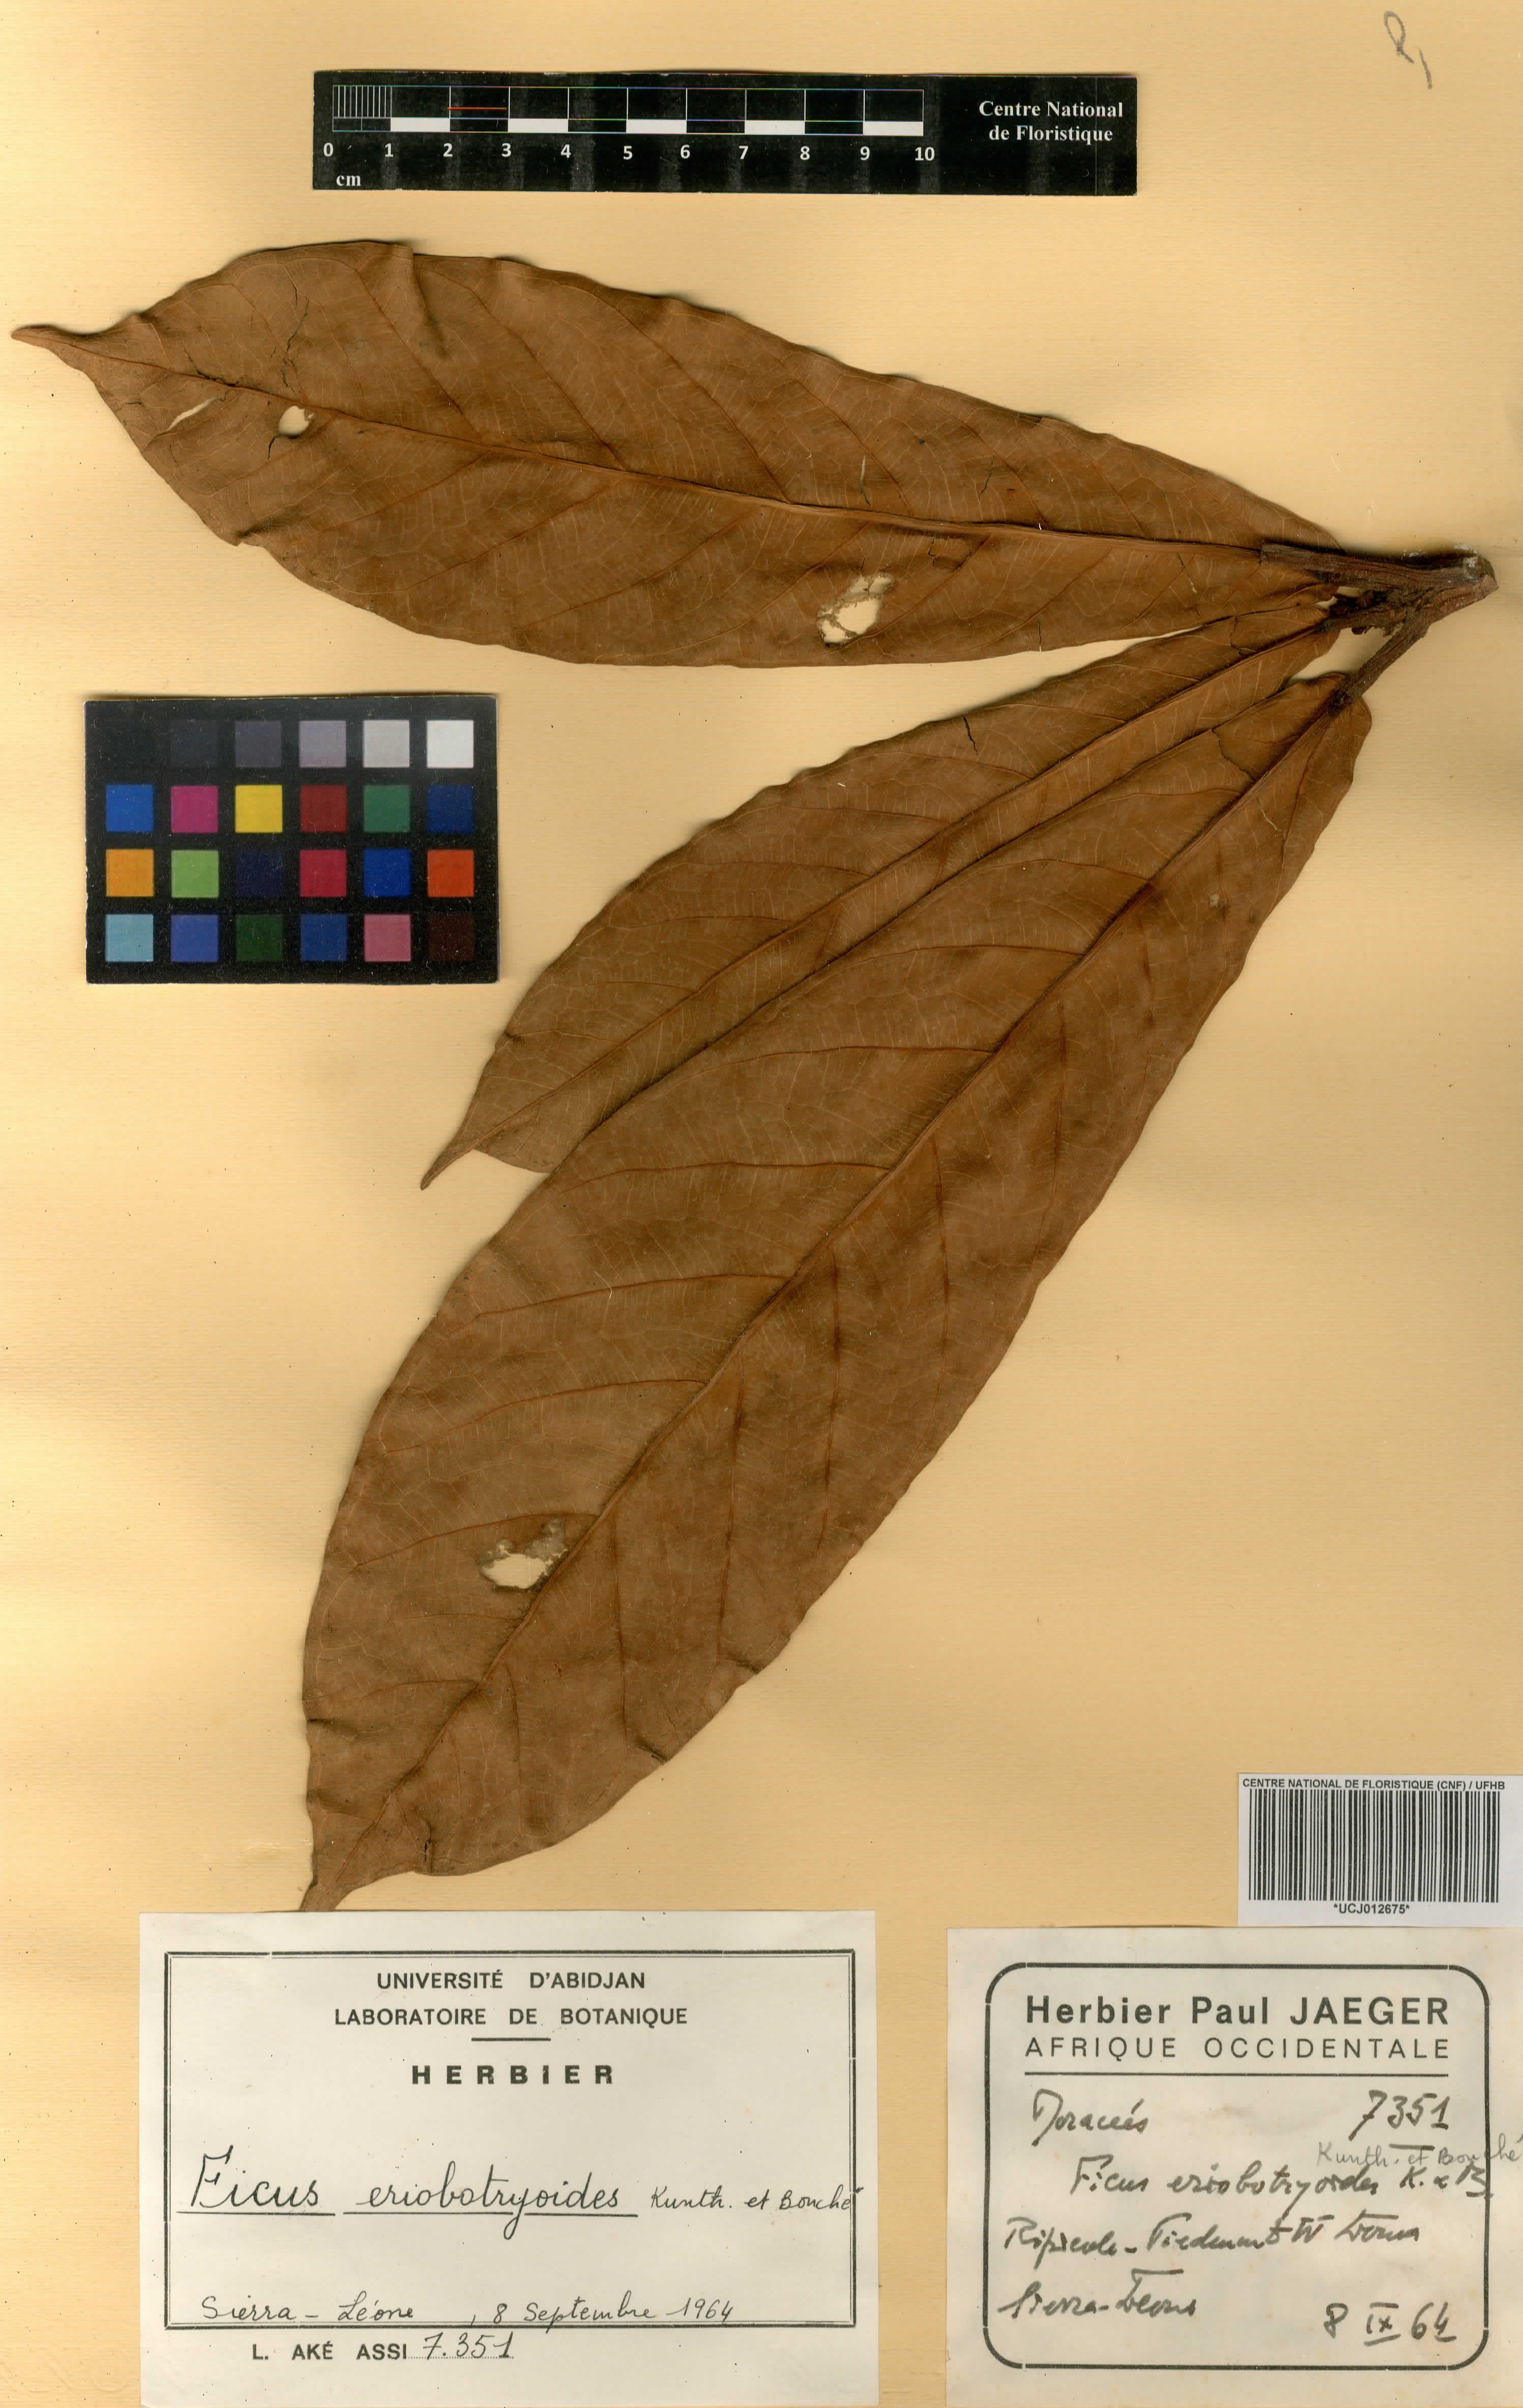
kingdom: Plantae
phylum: Tracheophyta
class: Magnoliopsida
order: Rosales
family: Moraceae
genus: Ficus
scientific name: Ficus
